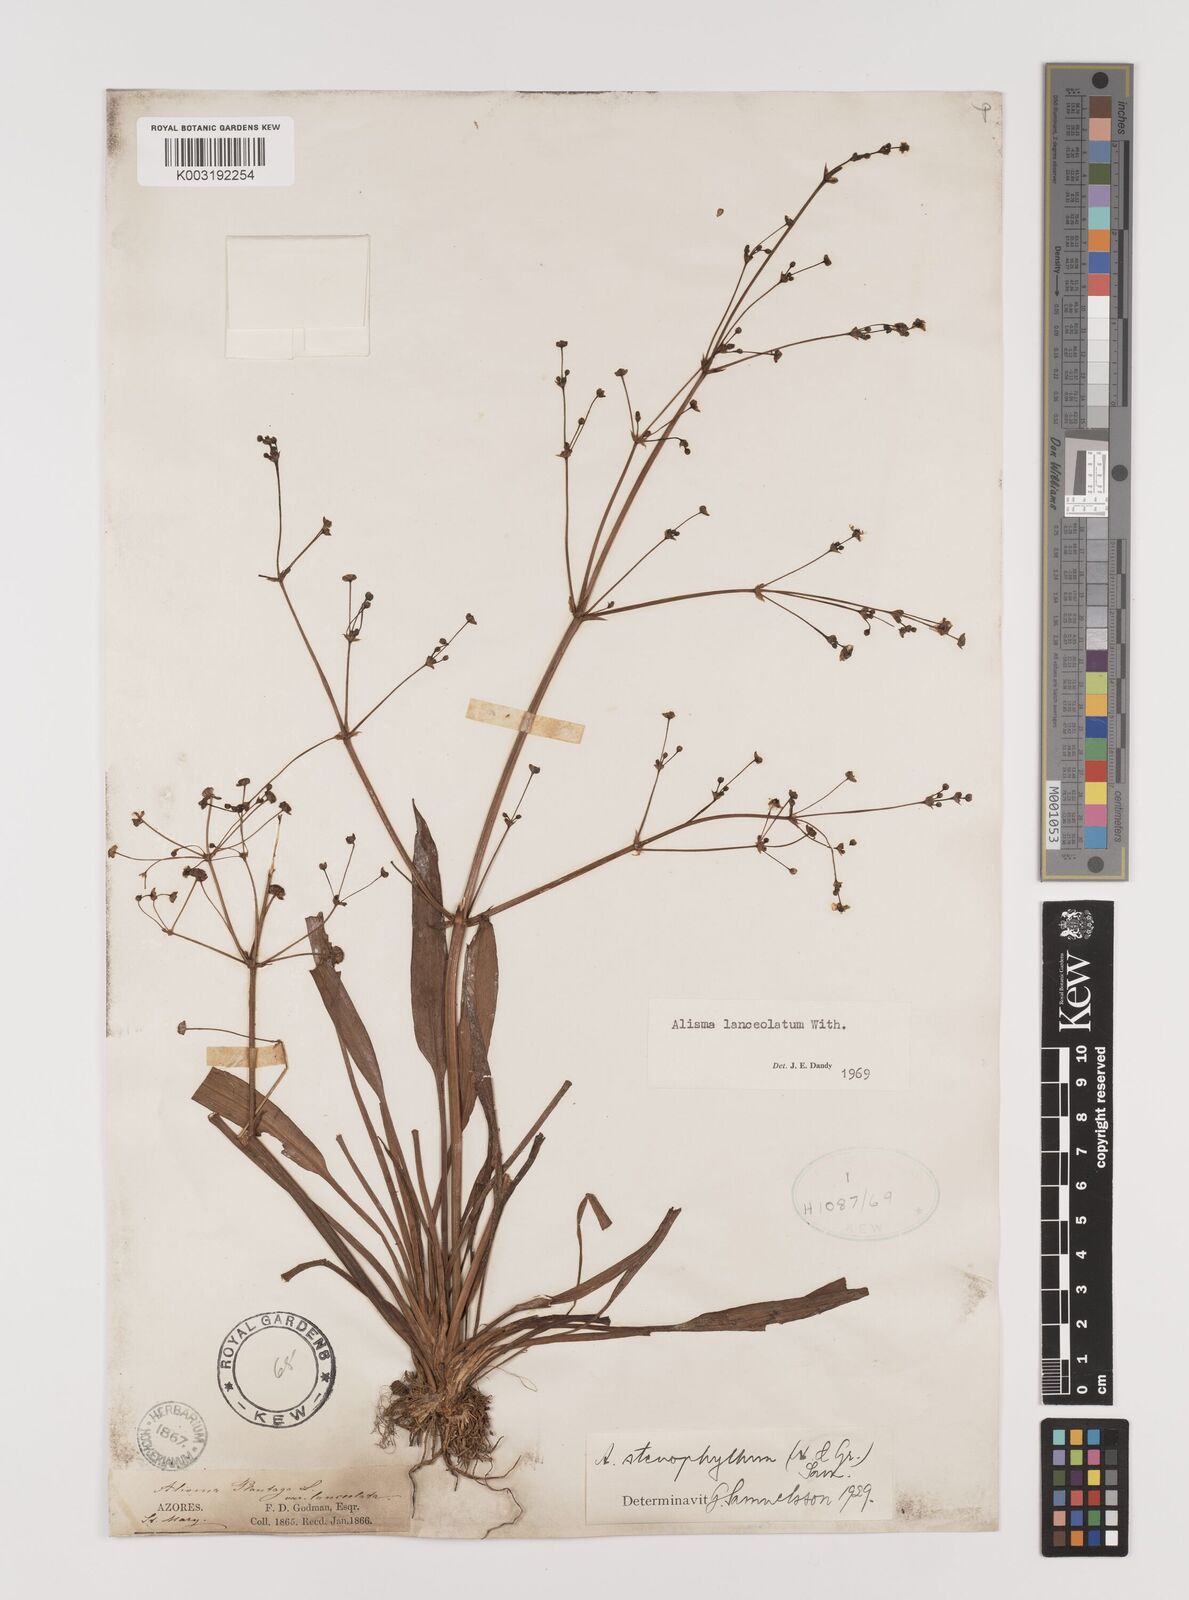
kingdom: Plantae
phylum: Tracheophyta
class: Liliopsida
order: Alismatales
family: Alismataceae
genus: Alisma
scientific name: Alisma lanceolatum
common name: Narrow-leaved water-plantain
